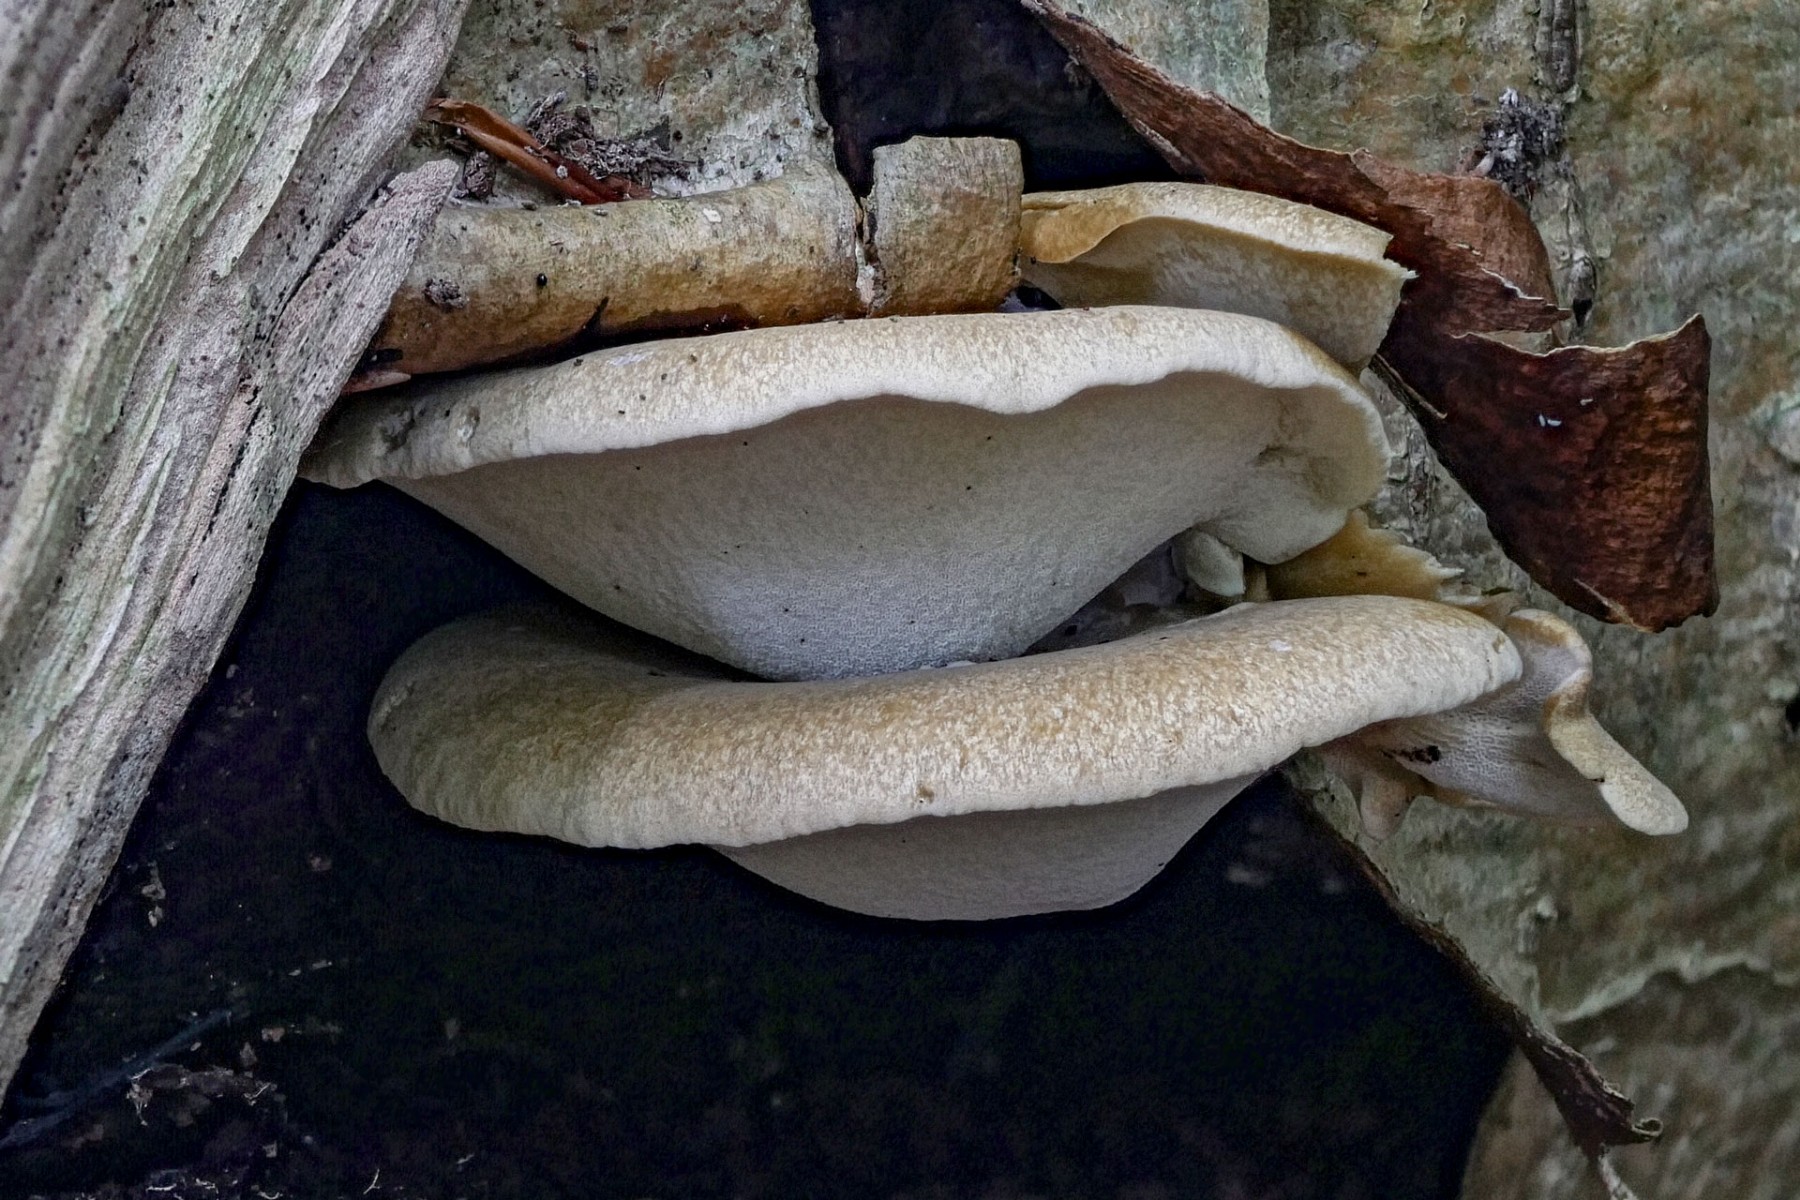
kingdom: Fungi
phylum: Basidiomycota
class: Agaricomycetes
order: Polyporales
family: Polyporaceae
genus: Cerioporus
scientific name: Cerioporus varius
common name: foranderlig stilkporesvamp
